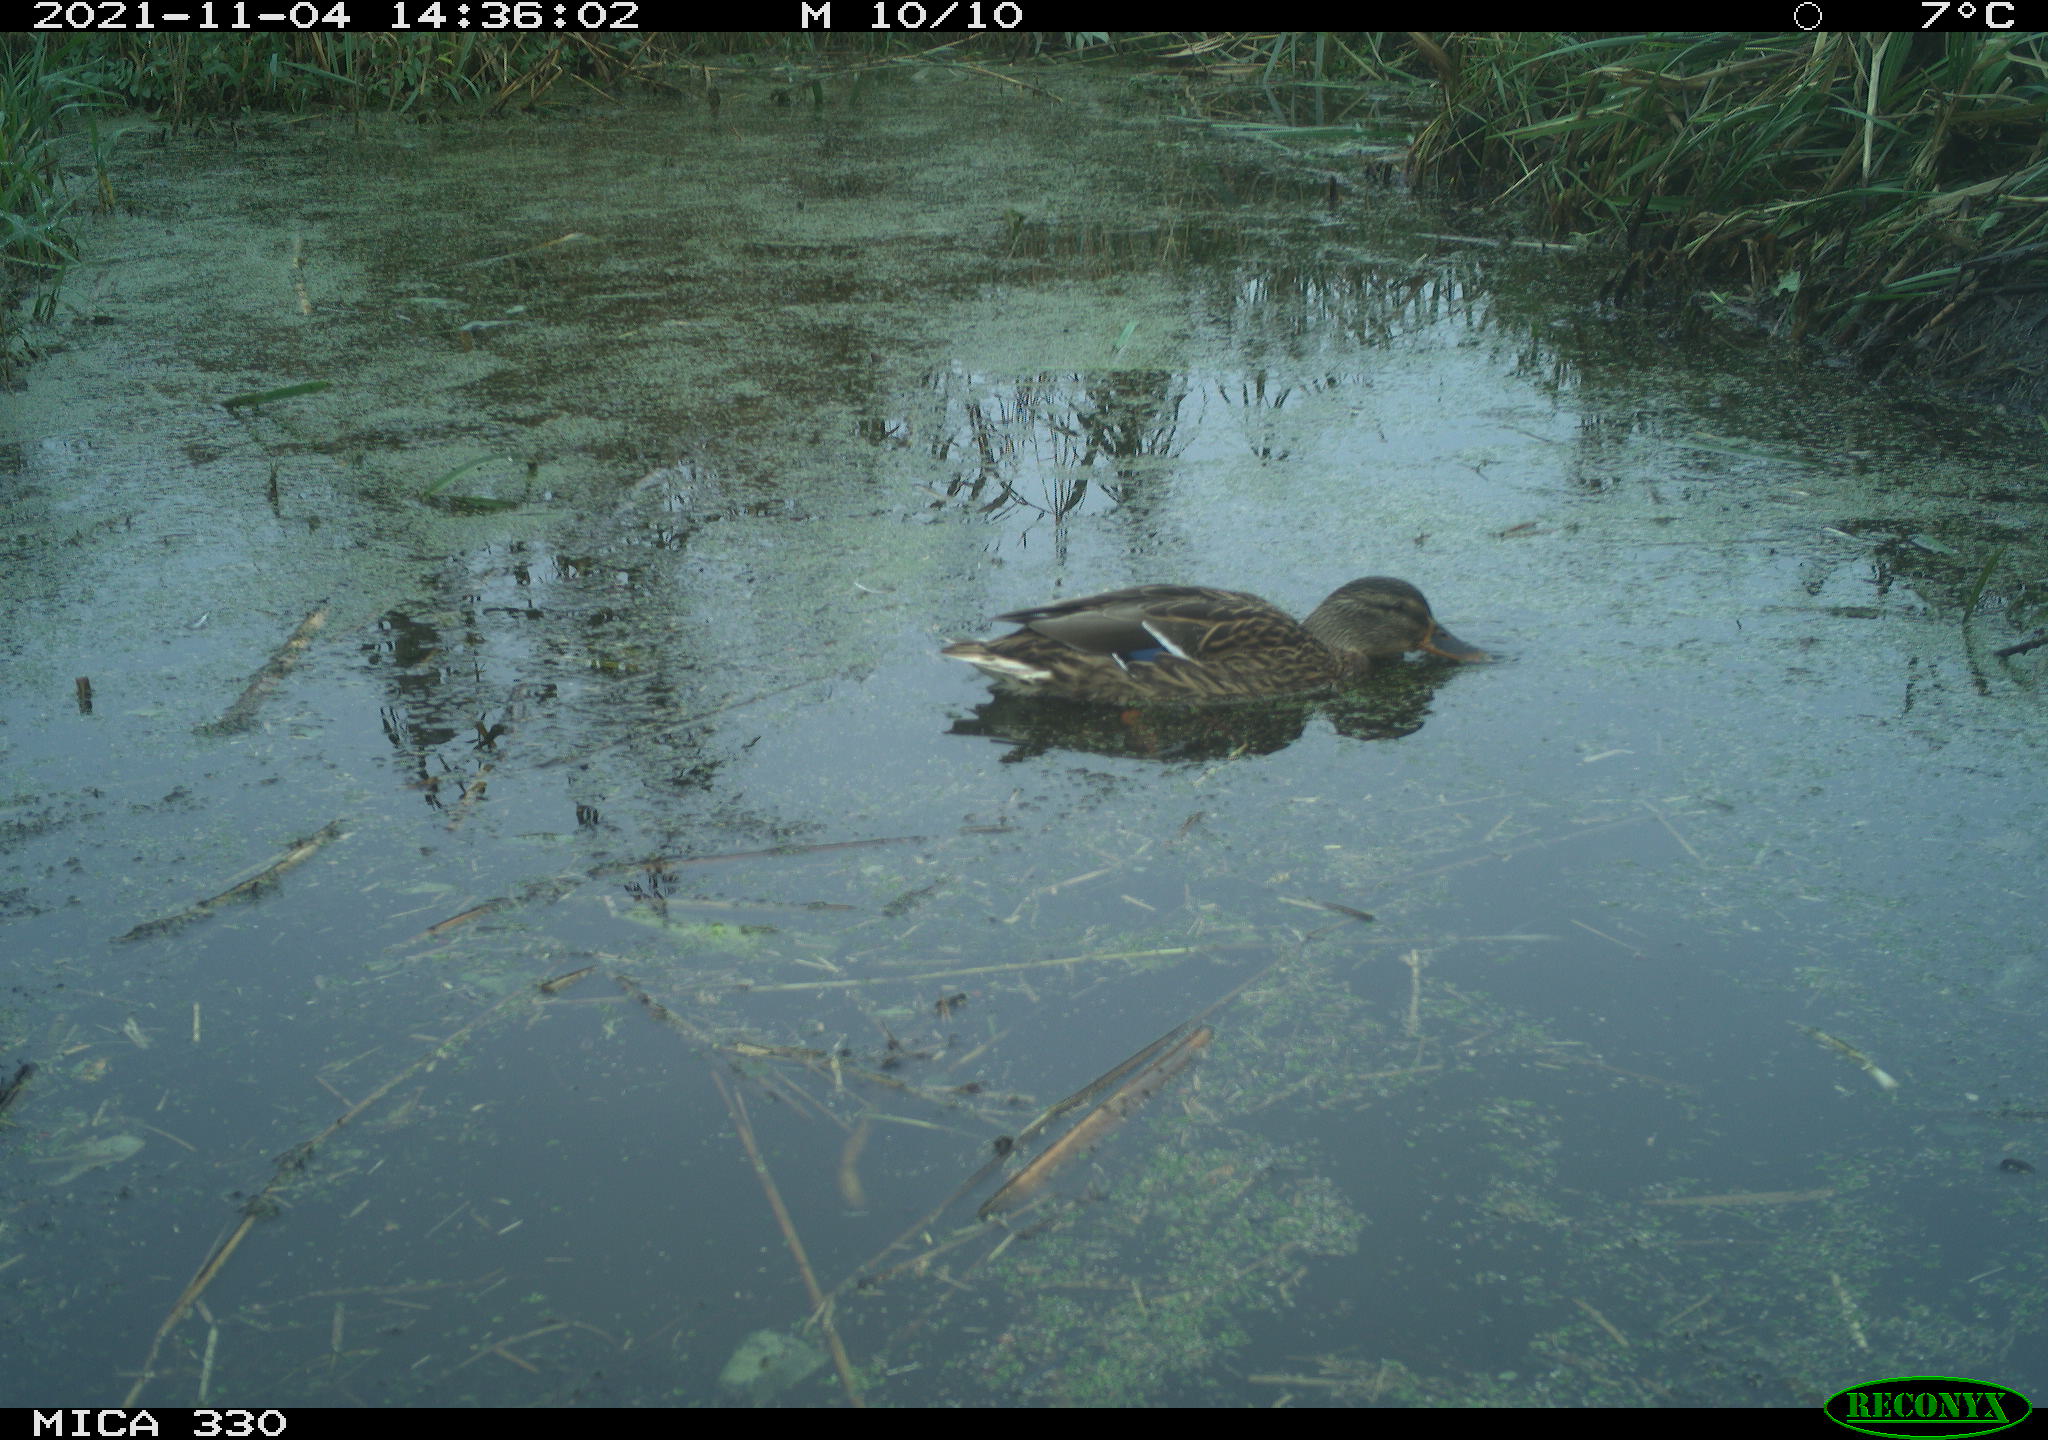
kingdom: Animalia
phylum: Chordata
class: Aves
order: Anseriformes
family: Anatidae
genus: Anas
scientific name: Anas platyrhynchos
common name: Mallard
